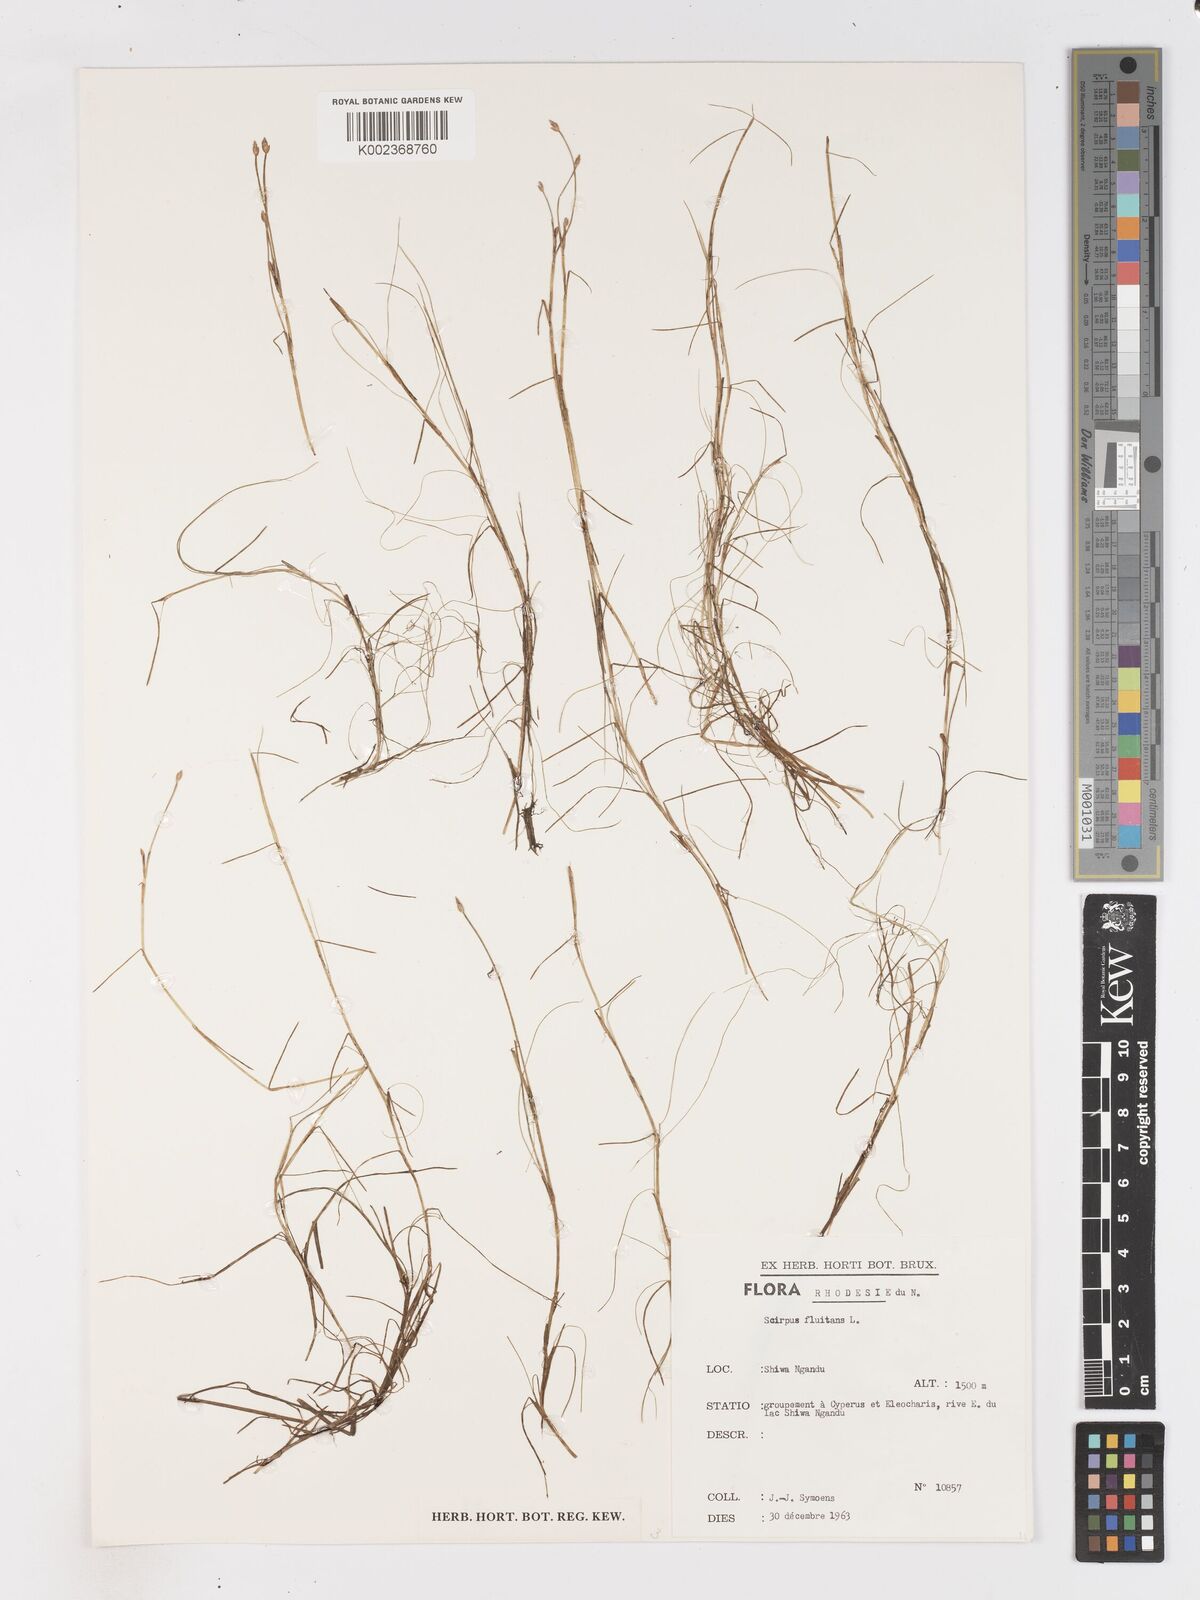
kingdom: Plantae
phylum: Tracheophyta
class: Liliopsida
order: Poales
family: Cyperaceae
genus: Isolepis
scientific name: Isolepis fluitans
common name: Floating club-rush
